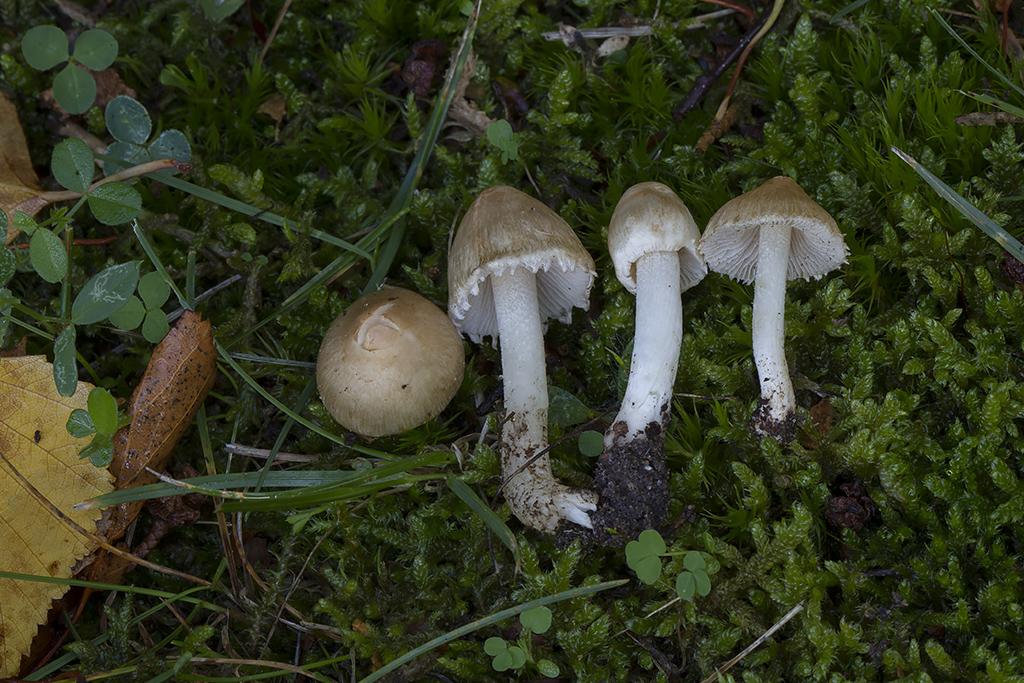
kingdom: Fungi
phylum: Basidiomycota
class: Agaricomycetes
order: Agaricales
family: Inocybaceae
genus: Inocybe
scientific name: Inocybe appendiculata
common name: tandet trævlhat
